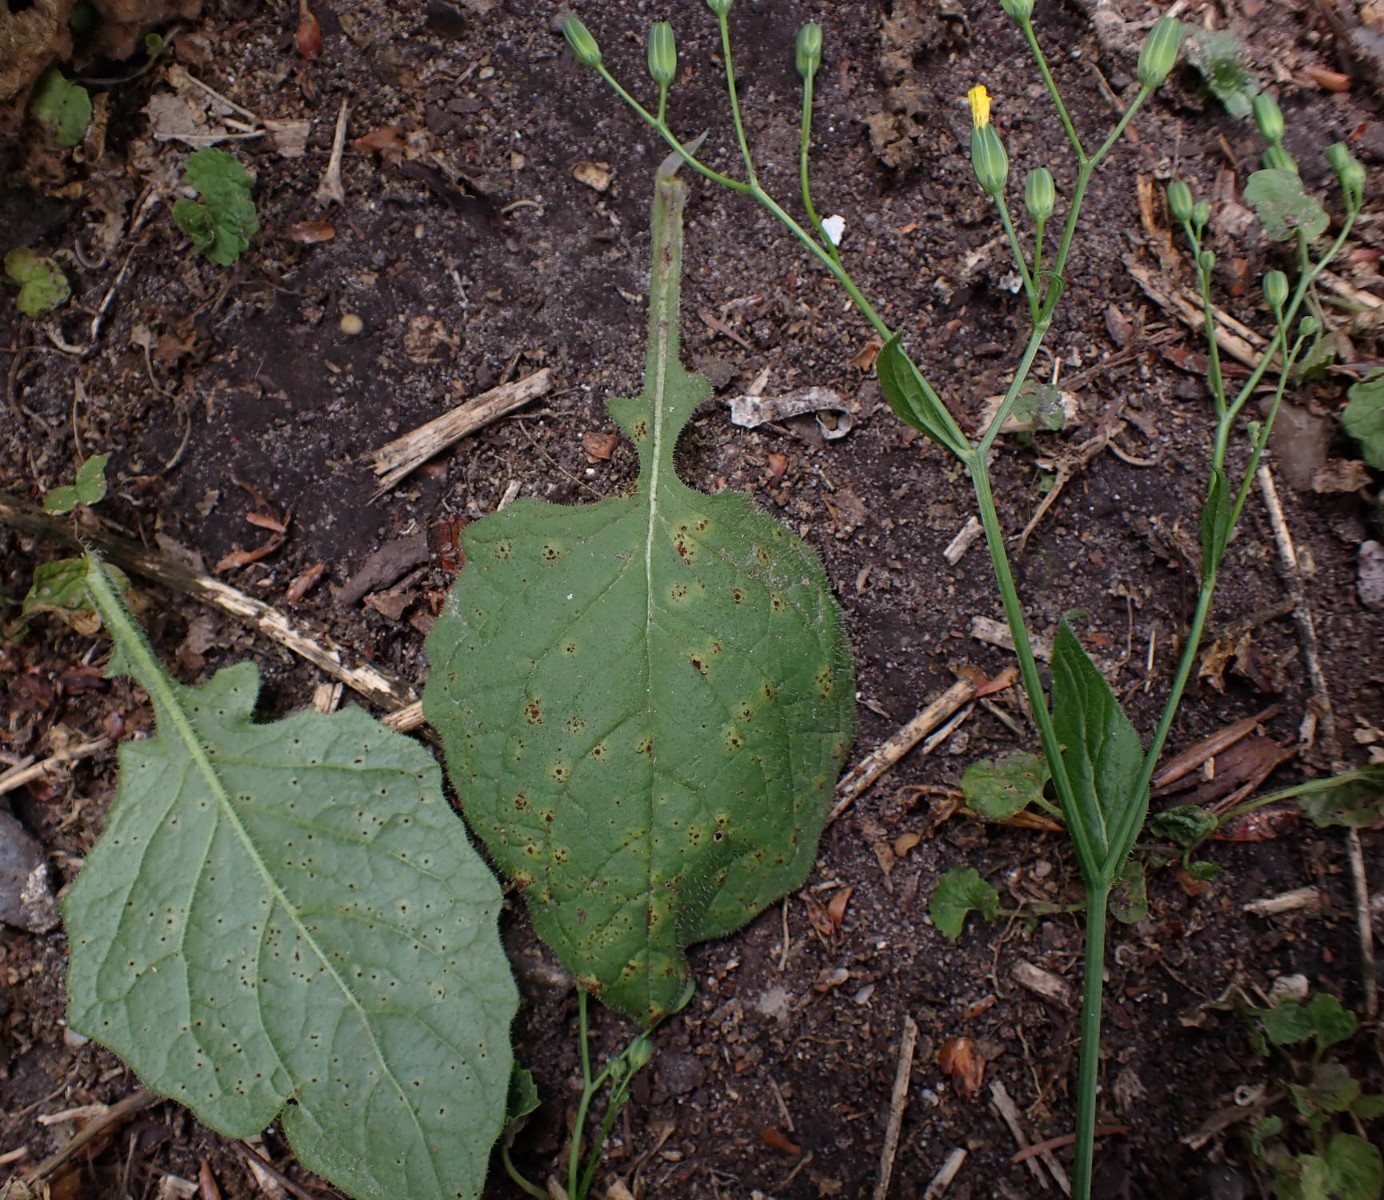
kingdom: Fungi
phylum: Basidiomycota
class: Pucciniomycetes
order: Pucciniales
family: Pucciniaceae
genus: Puccinia
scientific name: Puccinia lapsanae
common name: Nipplewort rust
